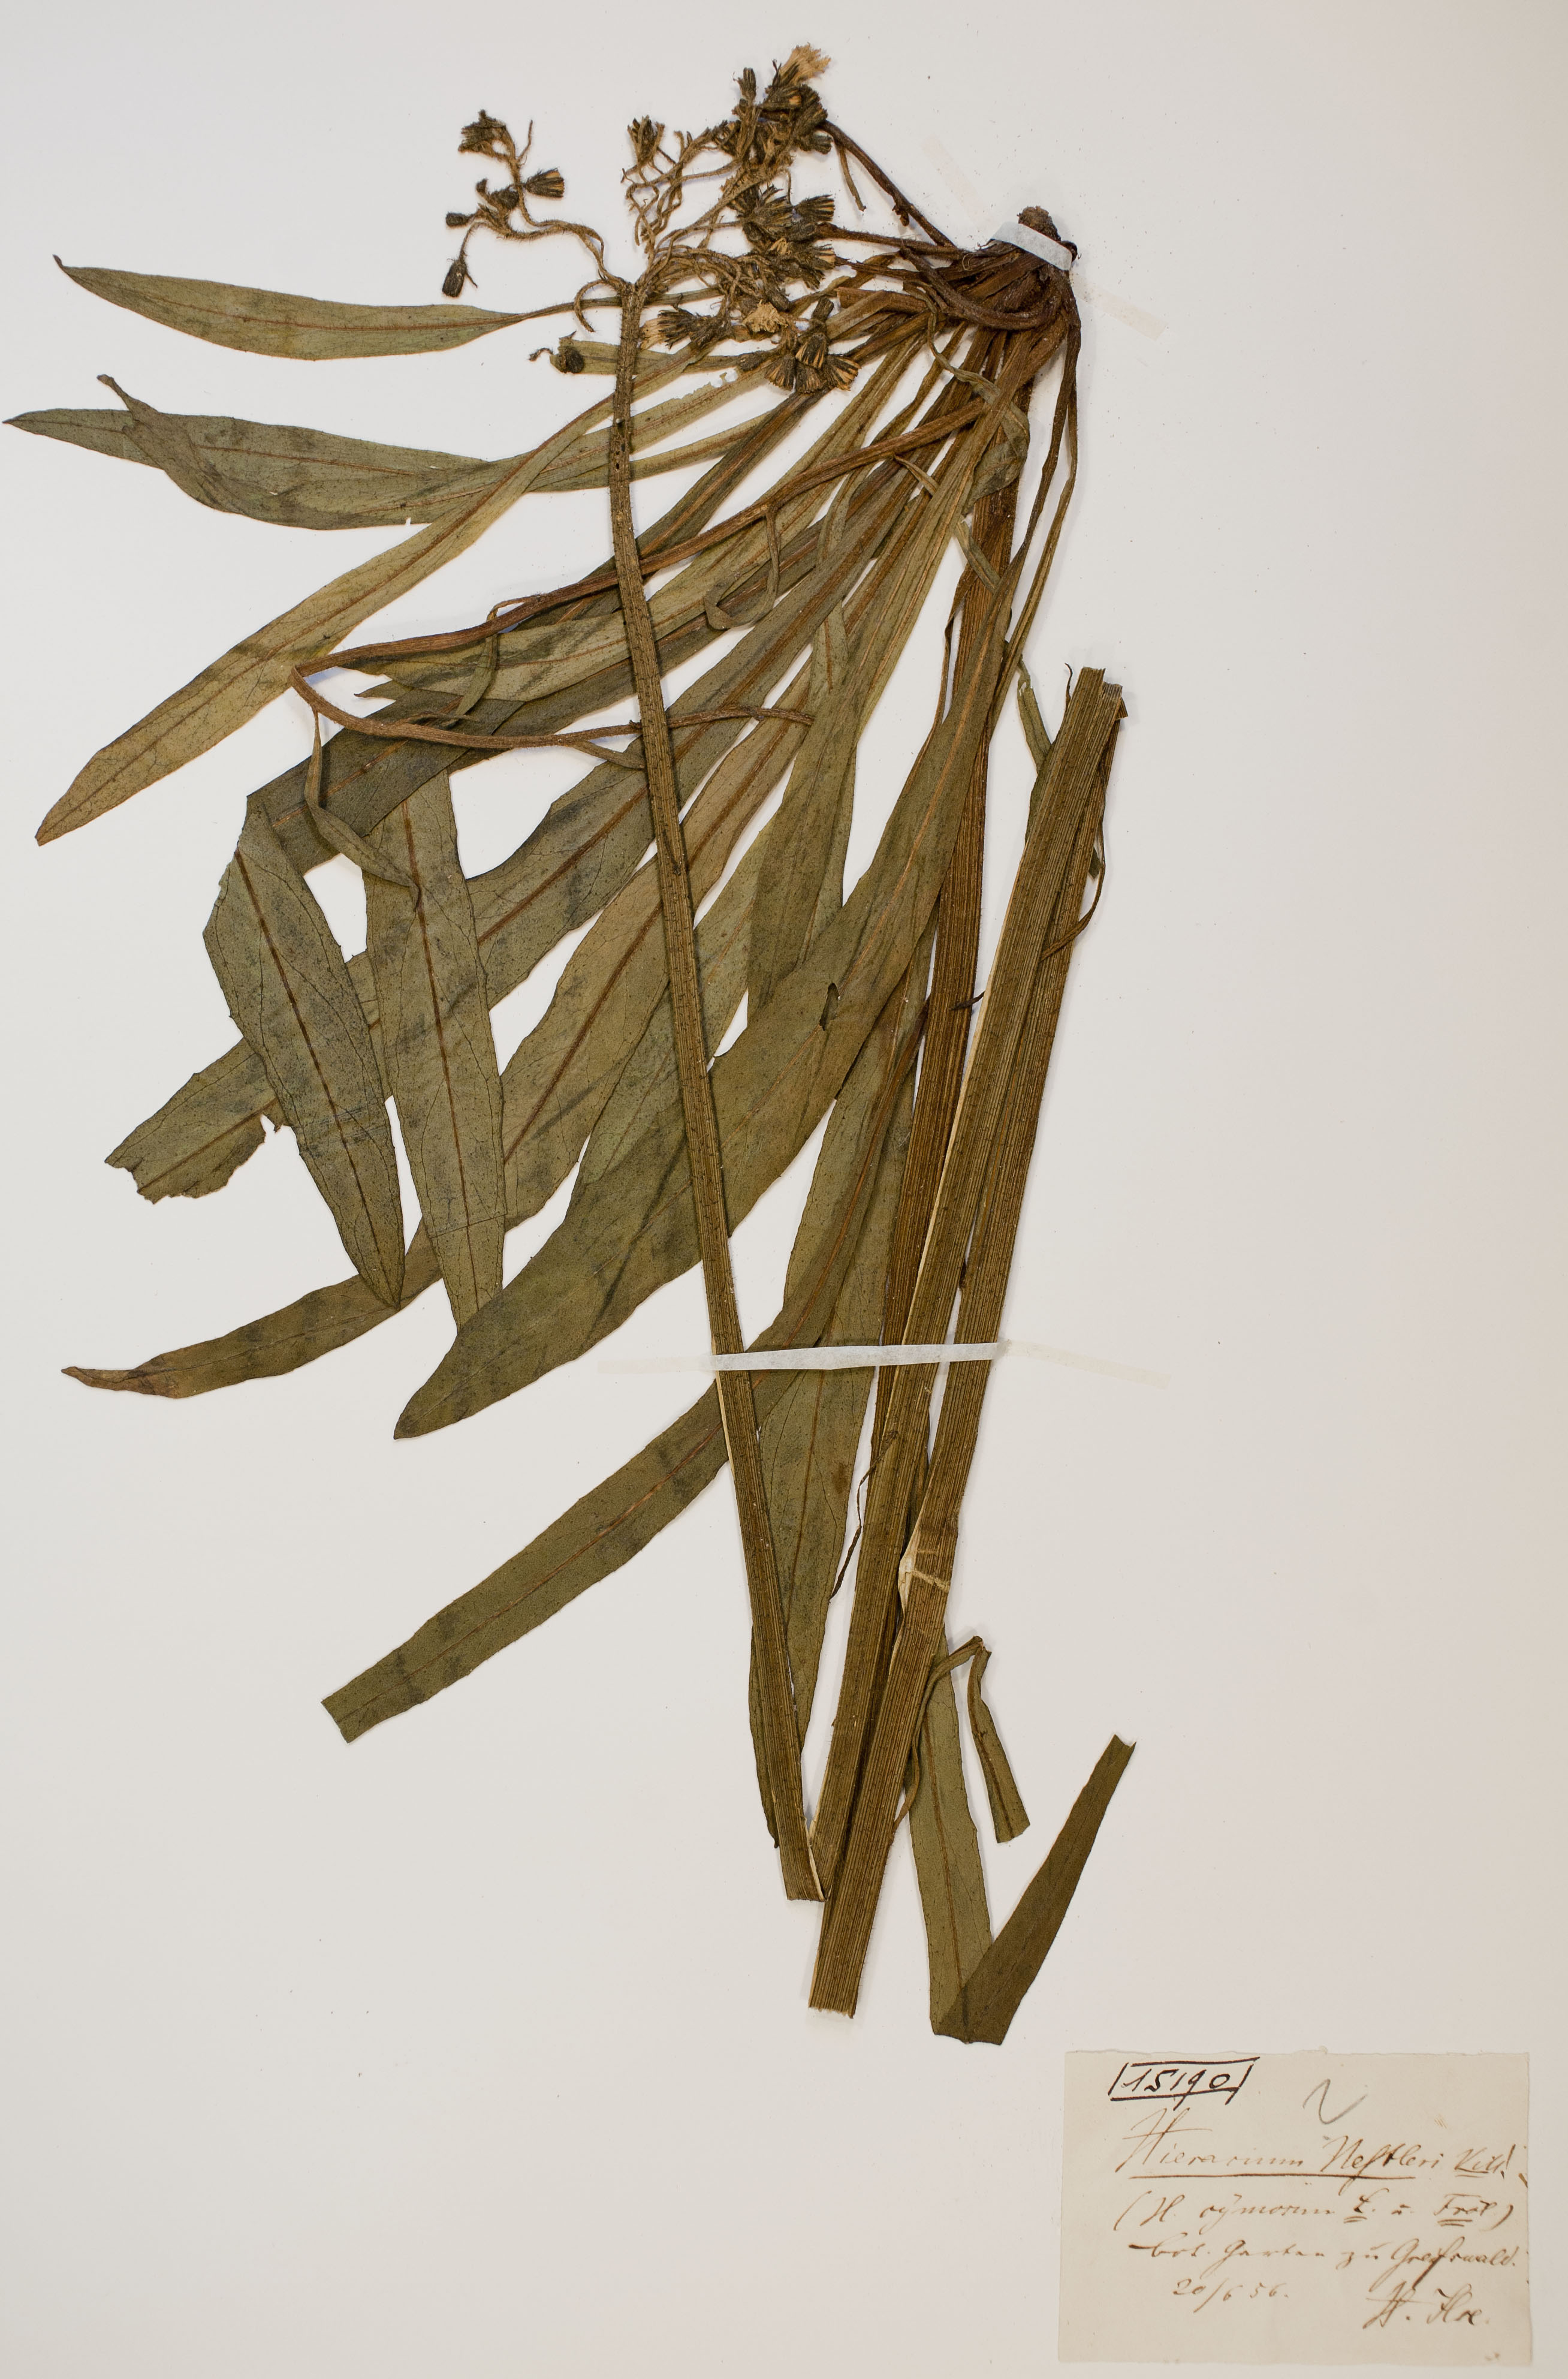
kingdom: Plantae
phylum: Tracheophyta
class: Magnoliopsida
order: Asterales
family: Asteraceae
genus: Pilosella
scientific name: Pilosella auriculoides
